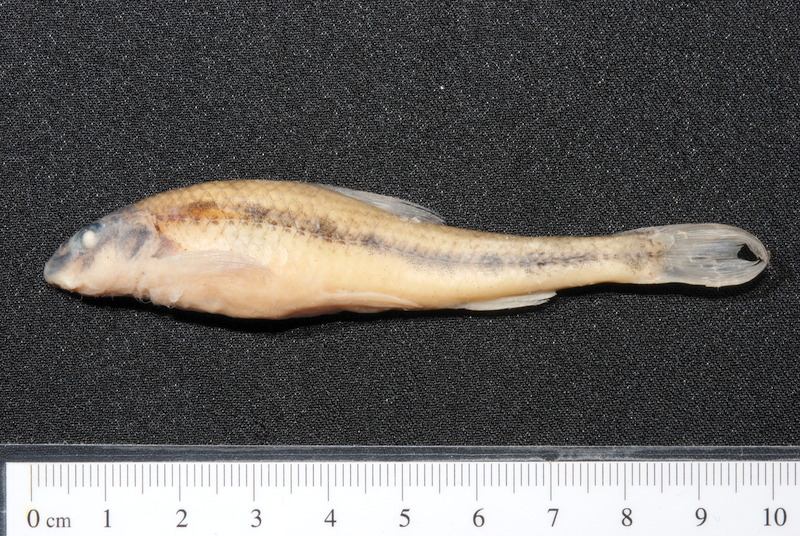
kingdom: Animalia
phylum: Chordata
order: Cypriniformes
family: Cyprinidae
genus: Romanogobio
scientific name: Romanogobio belingi
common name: Northern whitefin gudgeon
